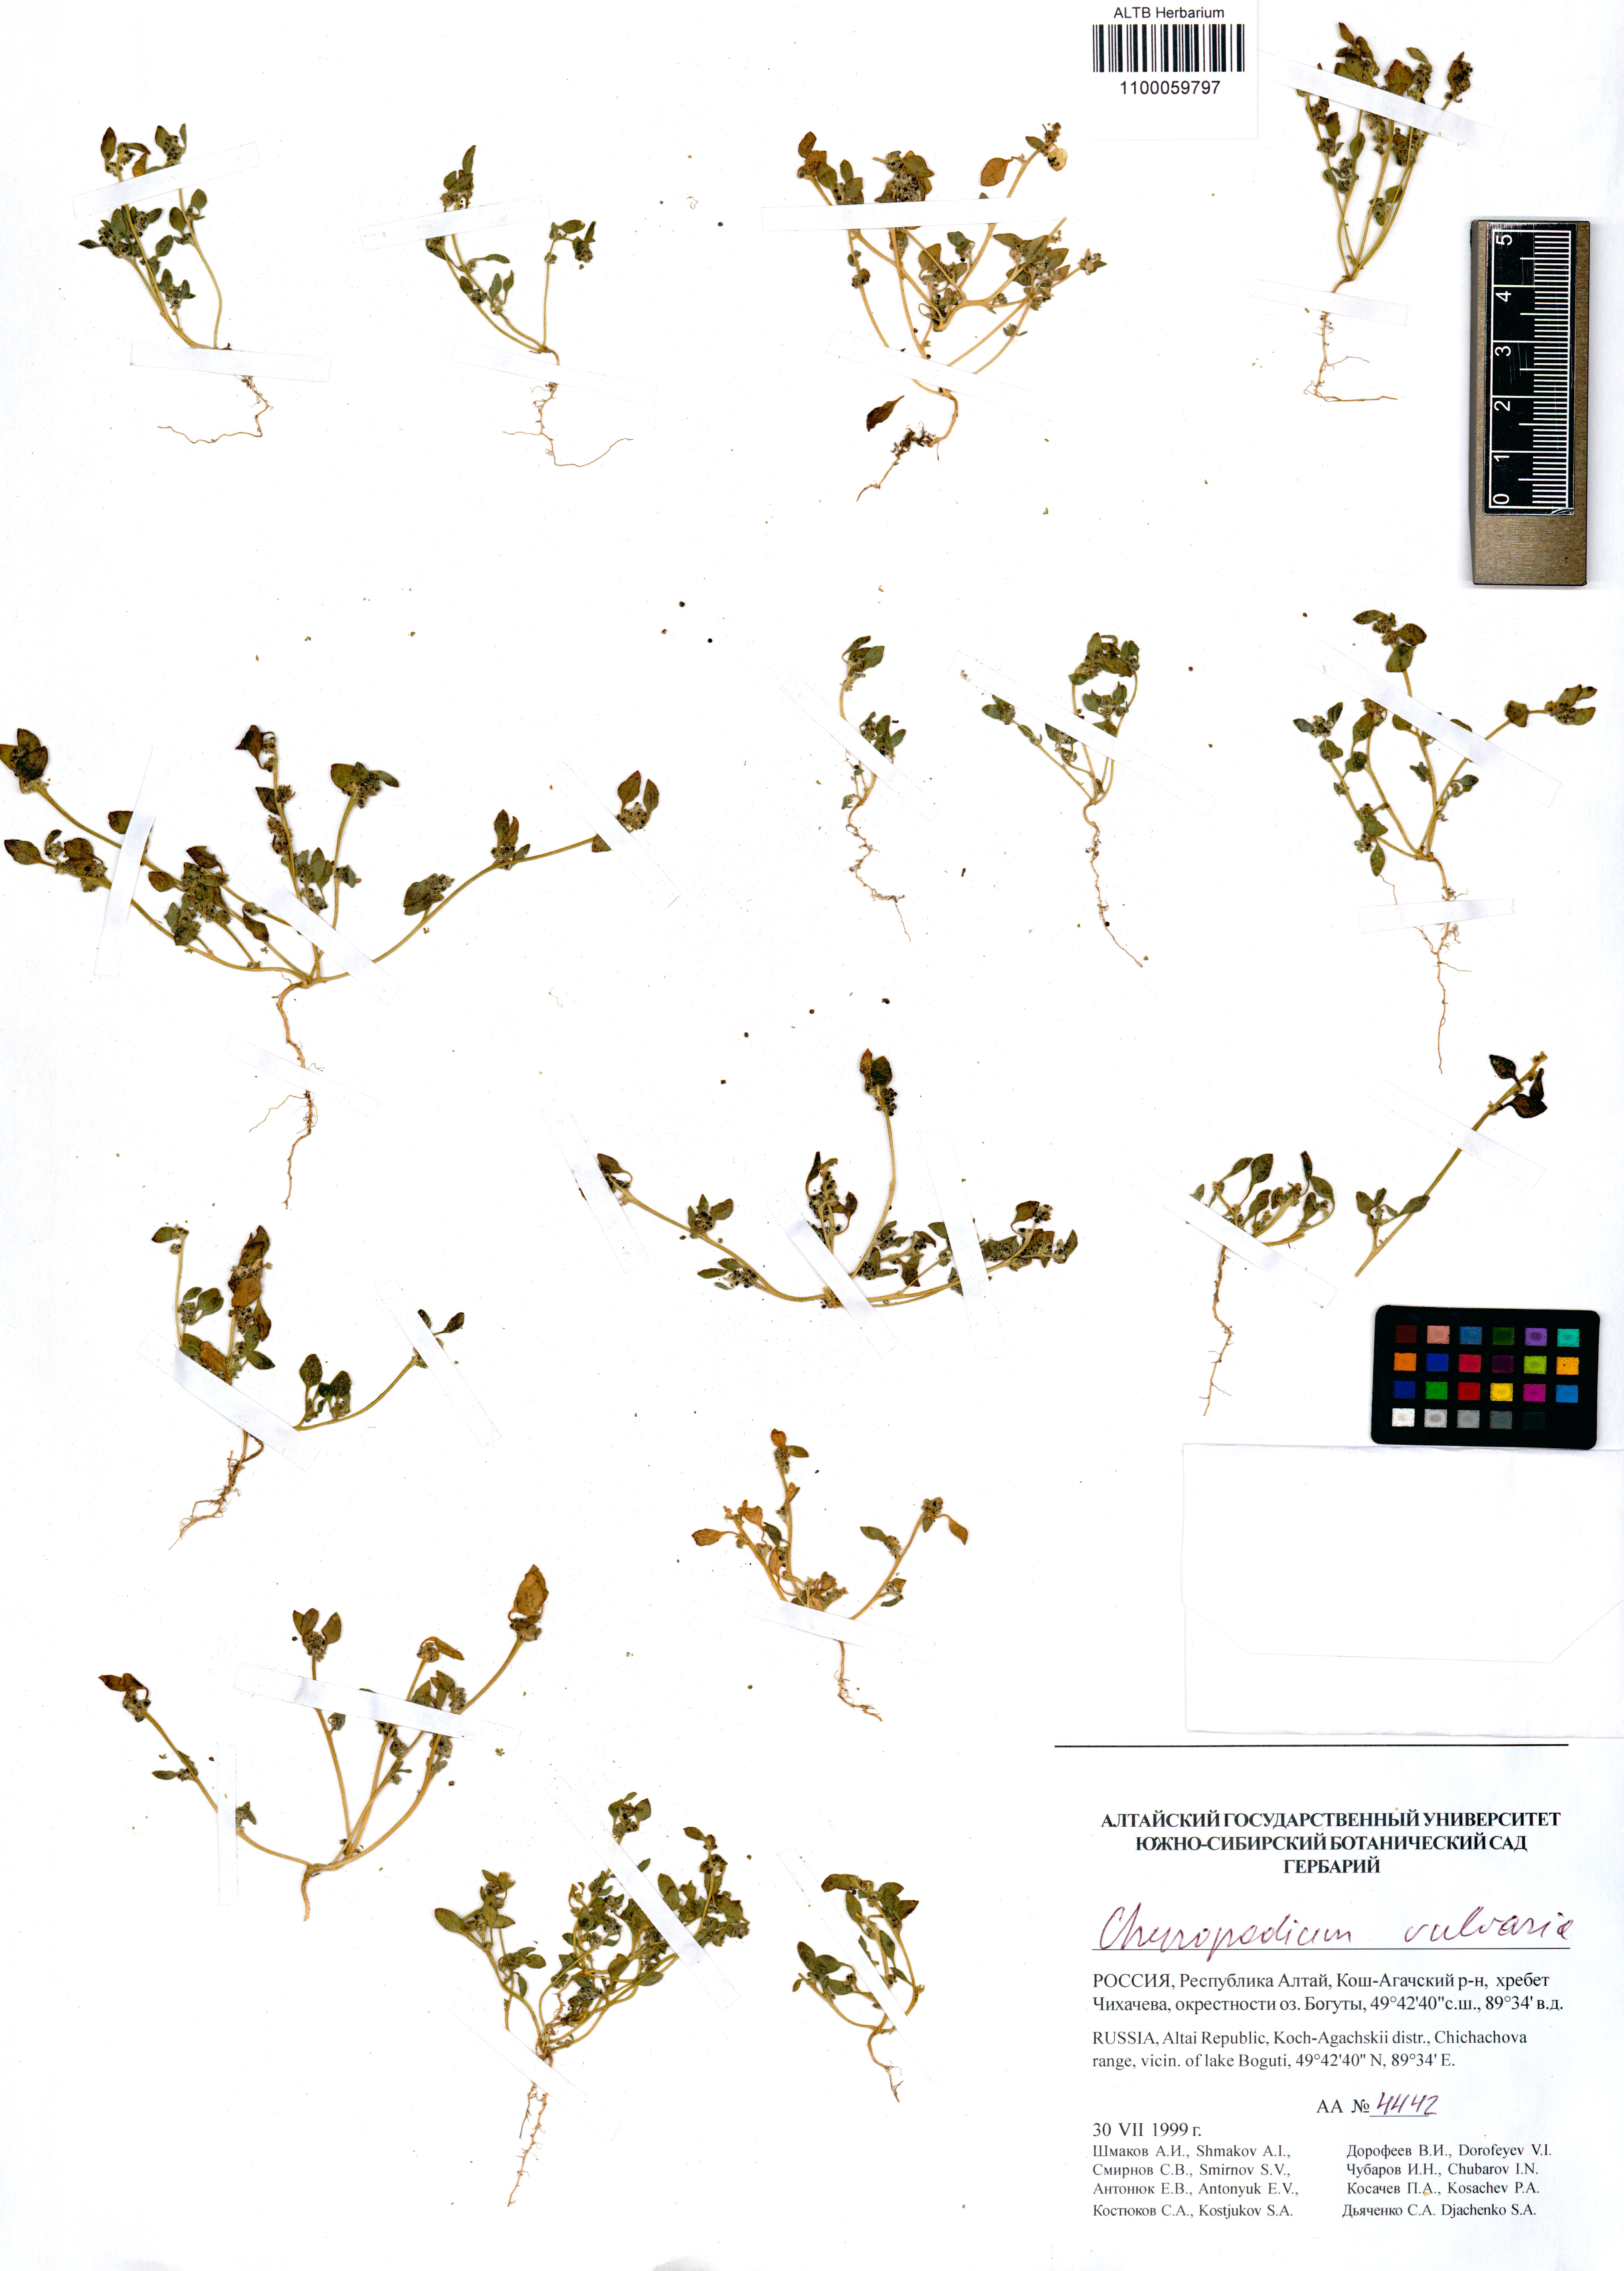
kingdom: Plantae
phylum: Tracheophyta
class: Magnoliopsida
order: Caryophyllales
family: Amaranthaceae
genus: Chenopodium
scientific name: Chenopodium vulvaria
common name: Stinking goosefoot
